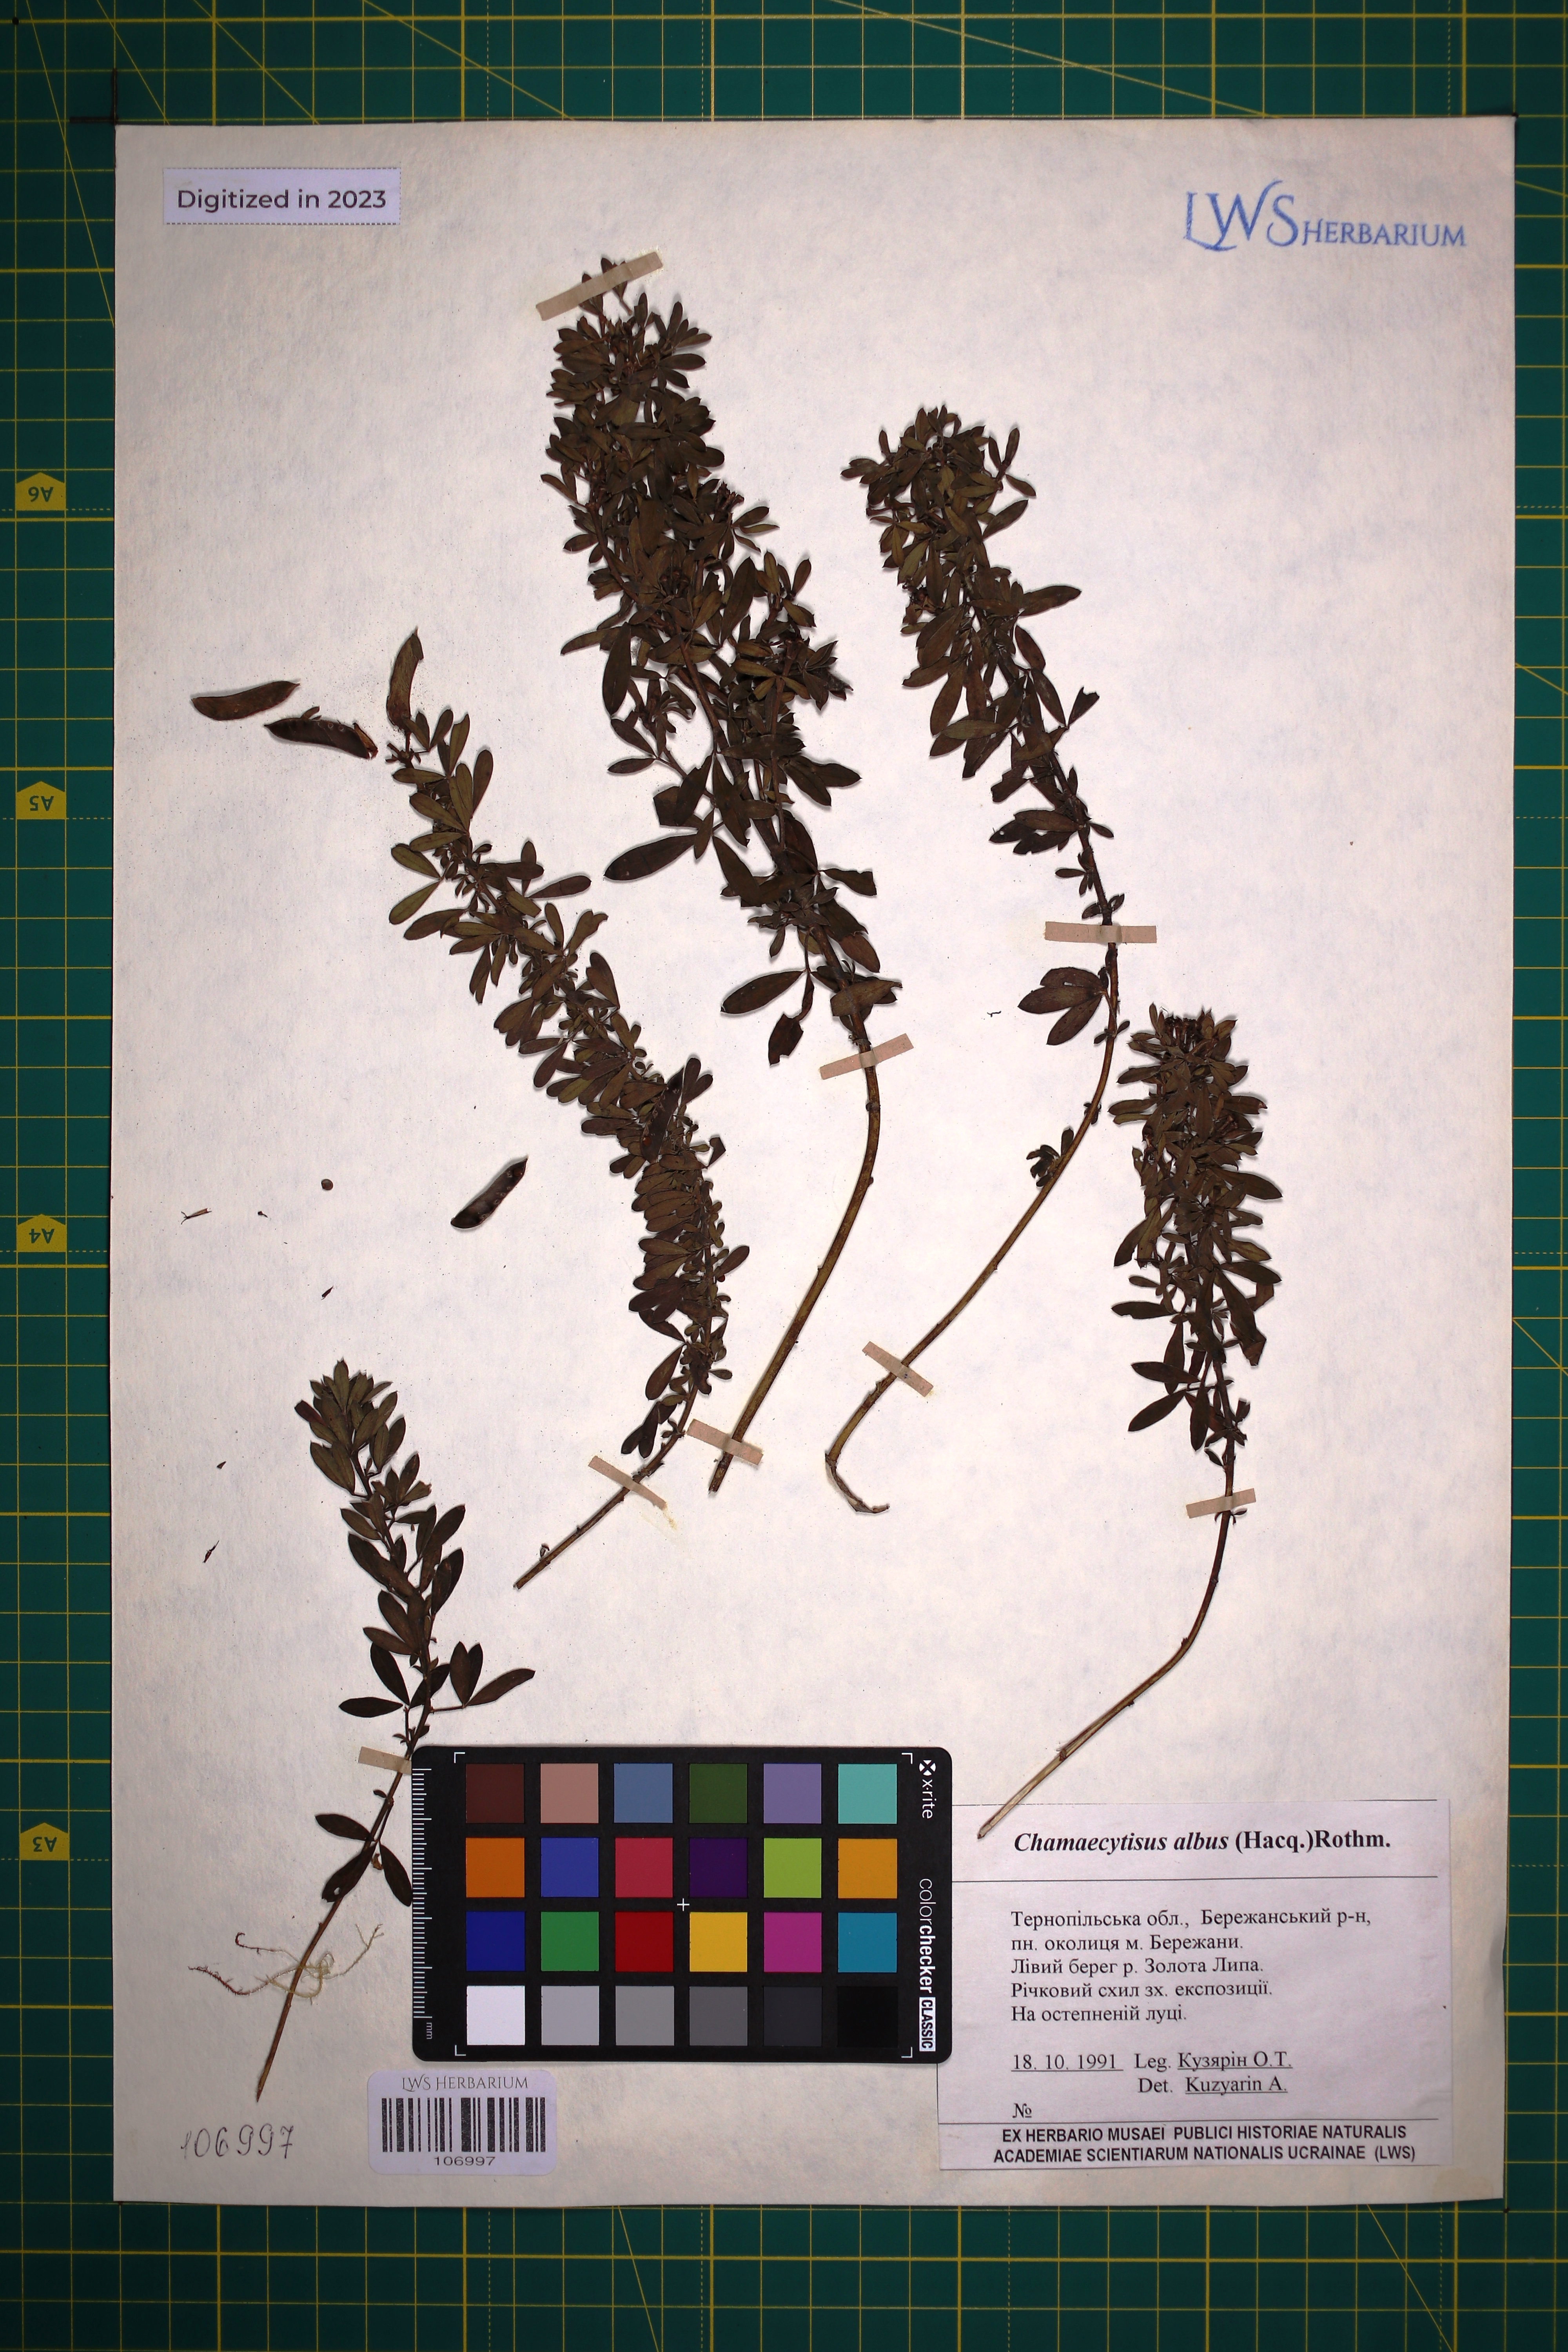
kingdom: Plantae
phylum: Tracheophyta
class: Magnoliopsida
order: Fabales
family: Fabaceae
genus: Chamaecytisus
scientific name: Chamaecytisus albus
